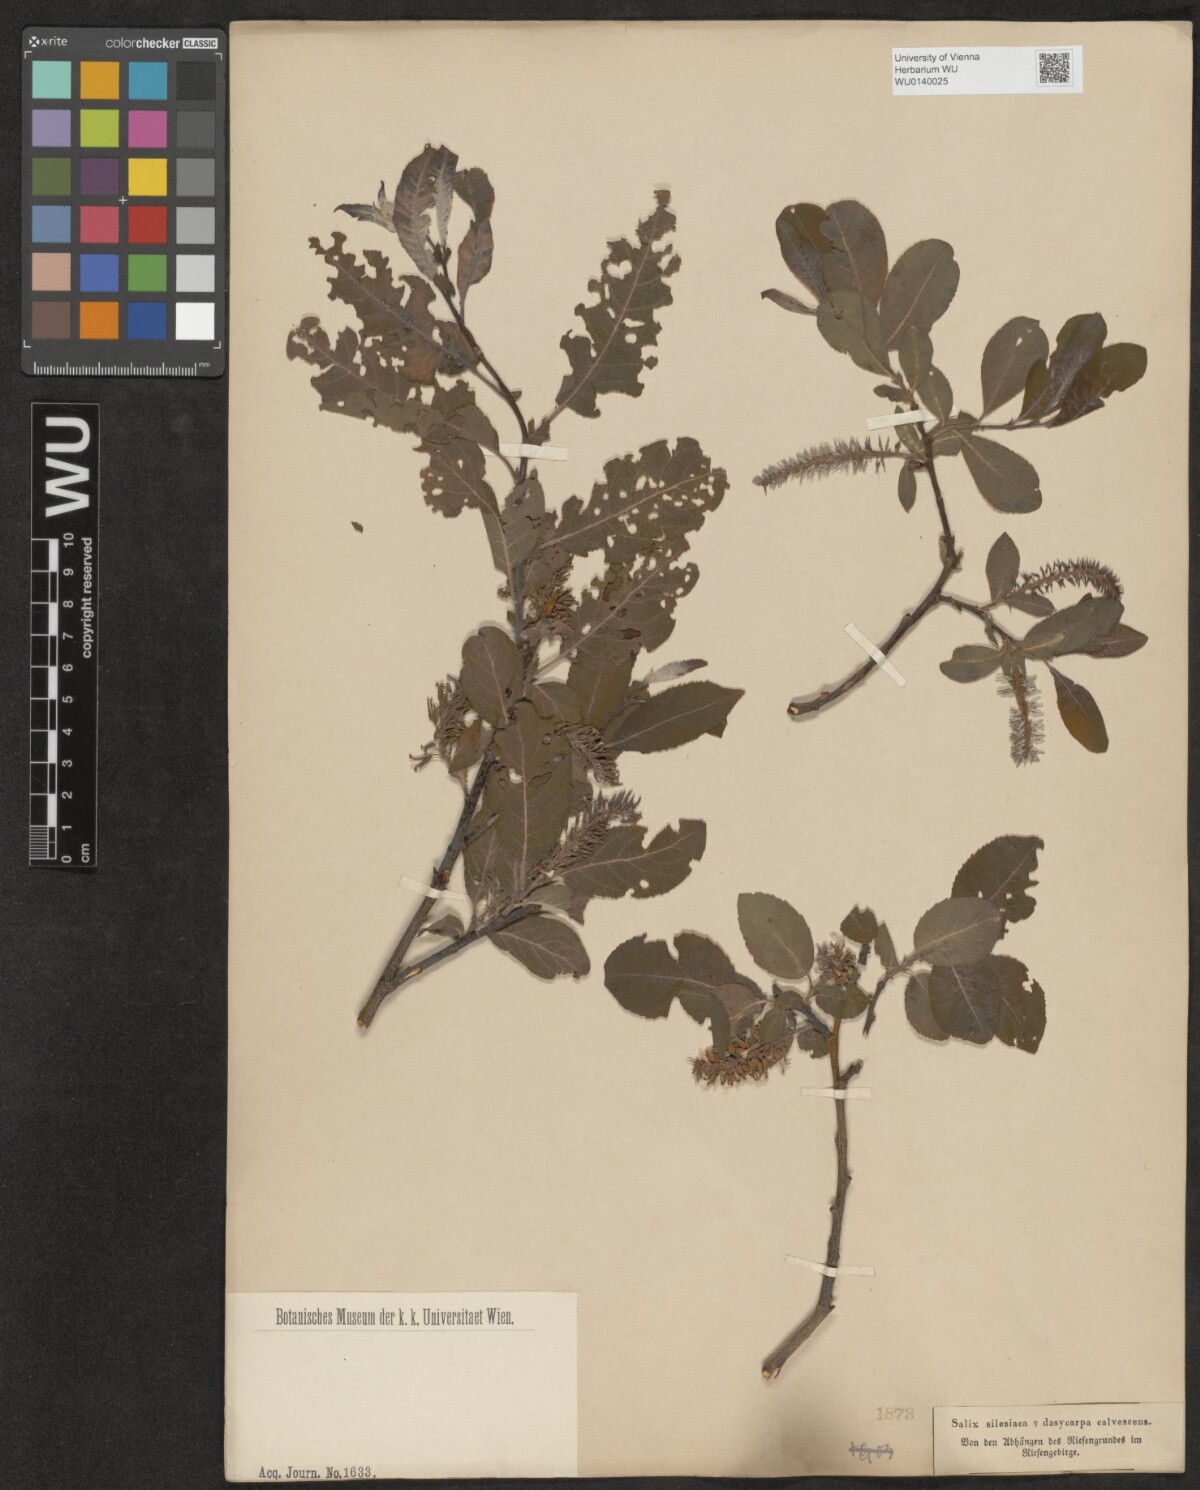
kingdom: Plantae
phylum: Tracheophyta
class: Magnoliopsida
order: Malpighiales
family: Salicaceae
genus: Salix
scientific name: Salix silesiaca
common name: Silesian willow
